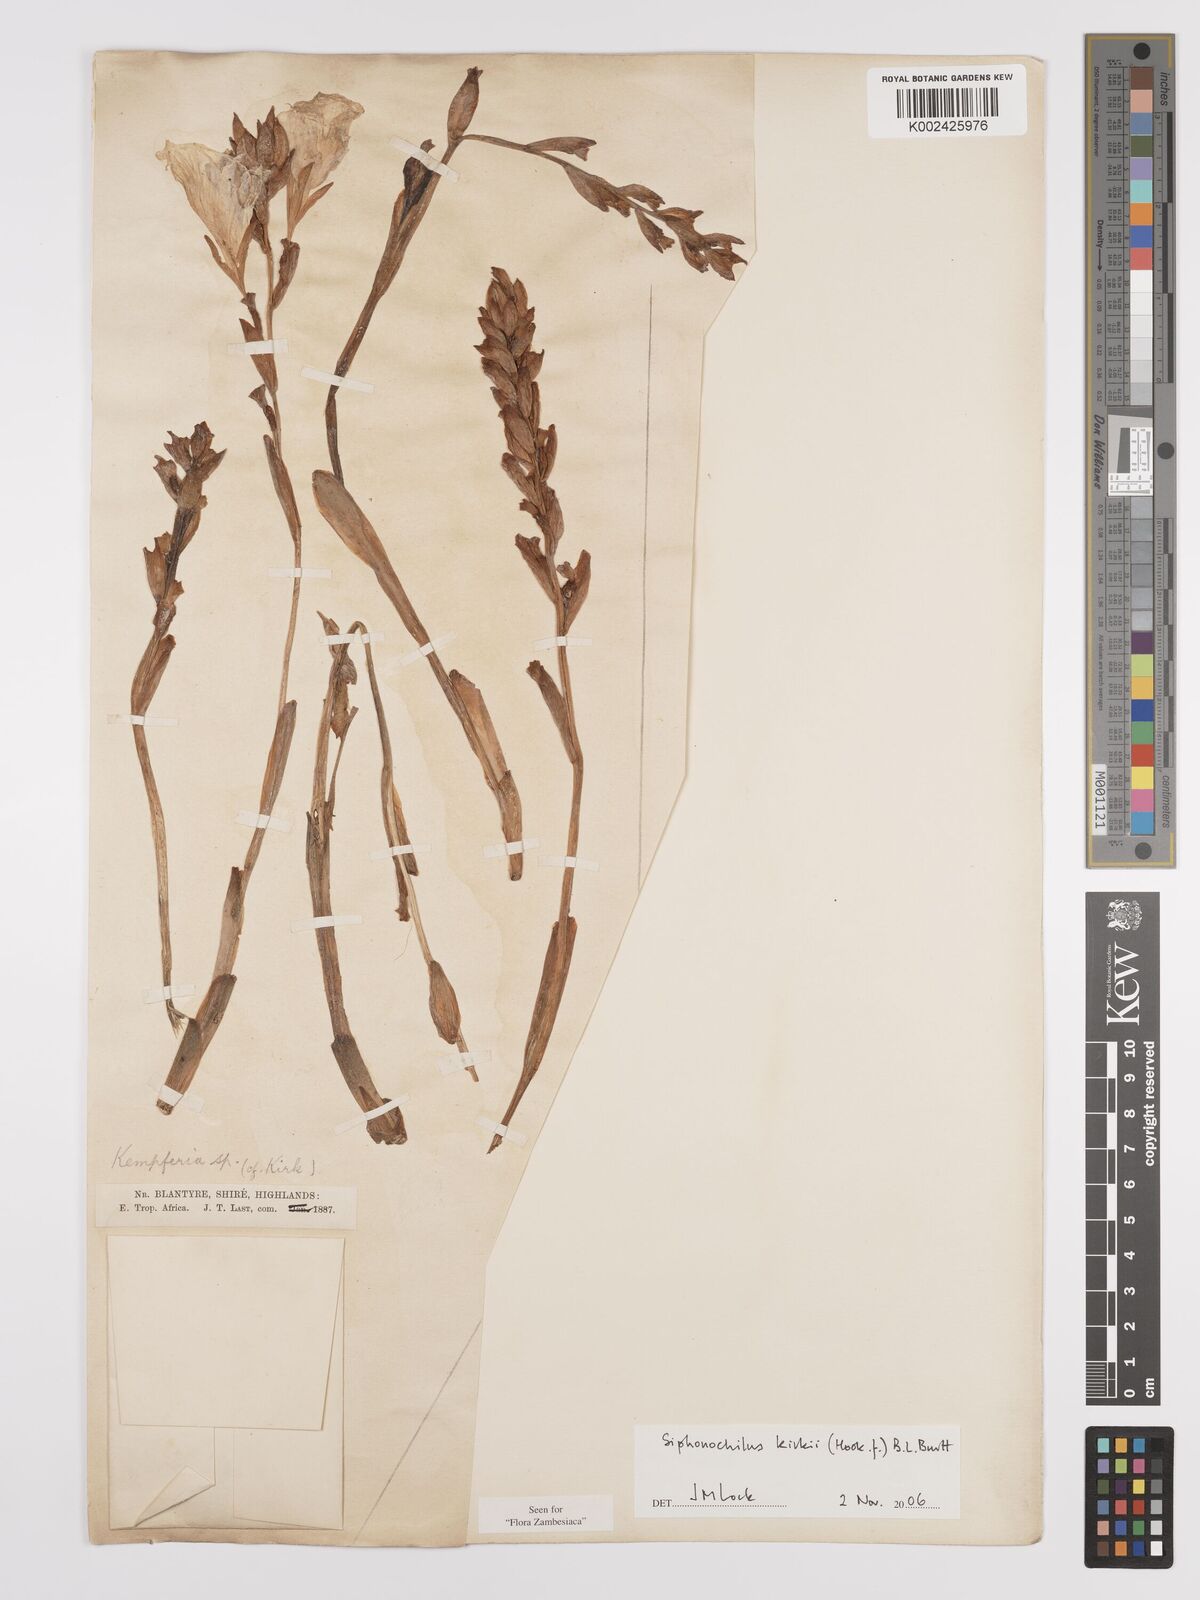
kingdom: Plantae
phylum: Tracheophyta
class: Liliopsida
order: Zingiberales
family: Zingiberaceae
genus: Siphonochilus
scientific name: Siphonochilus kirkii
